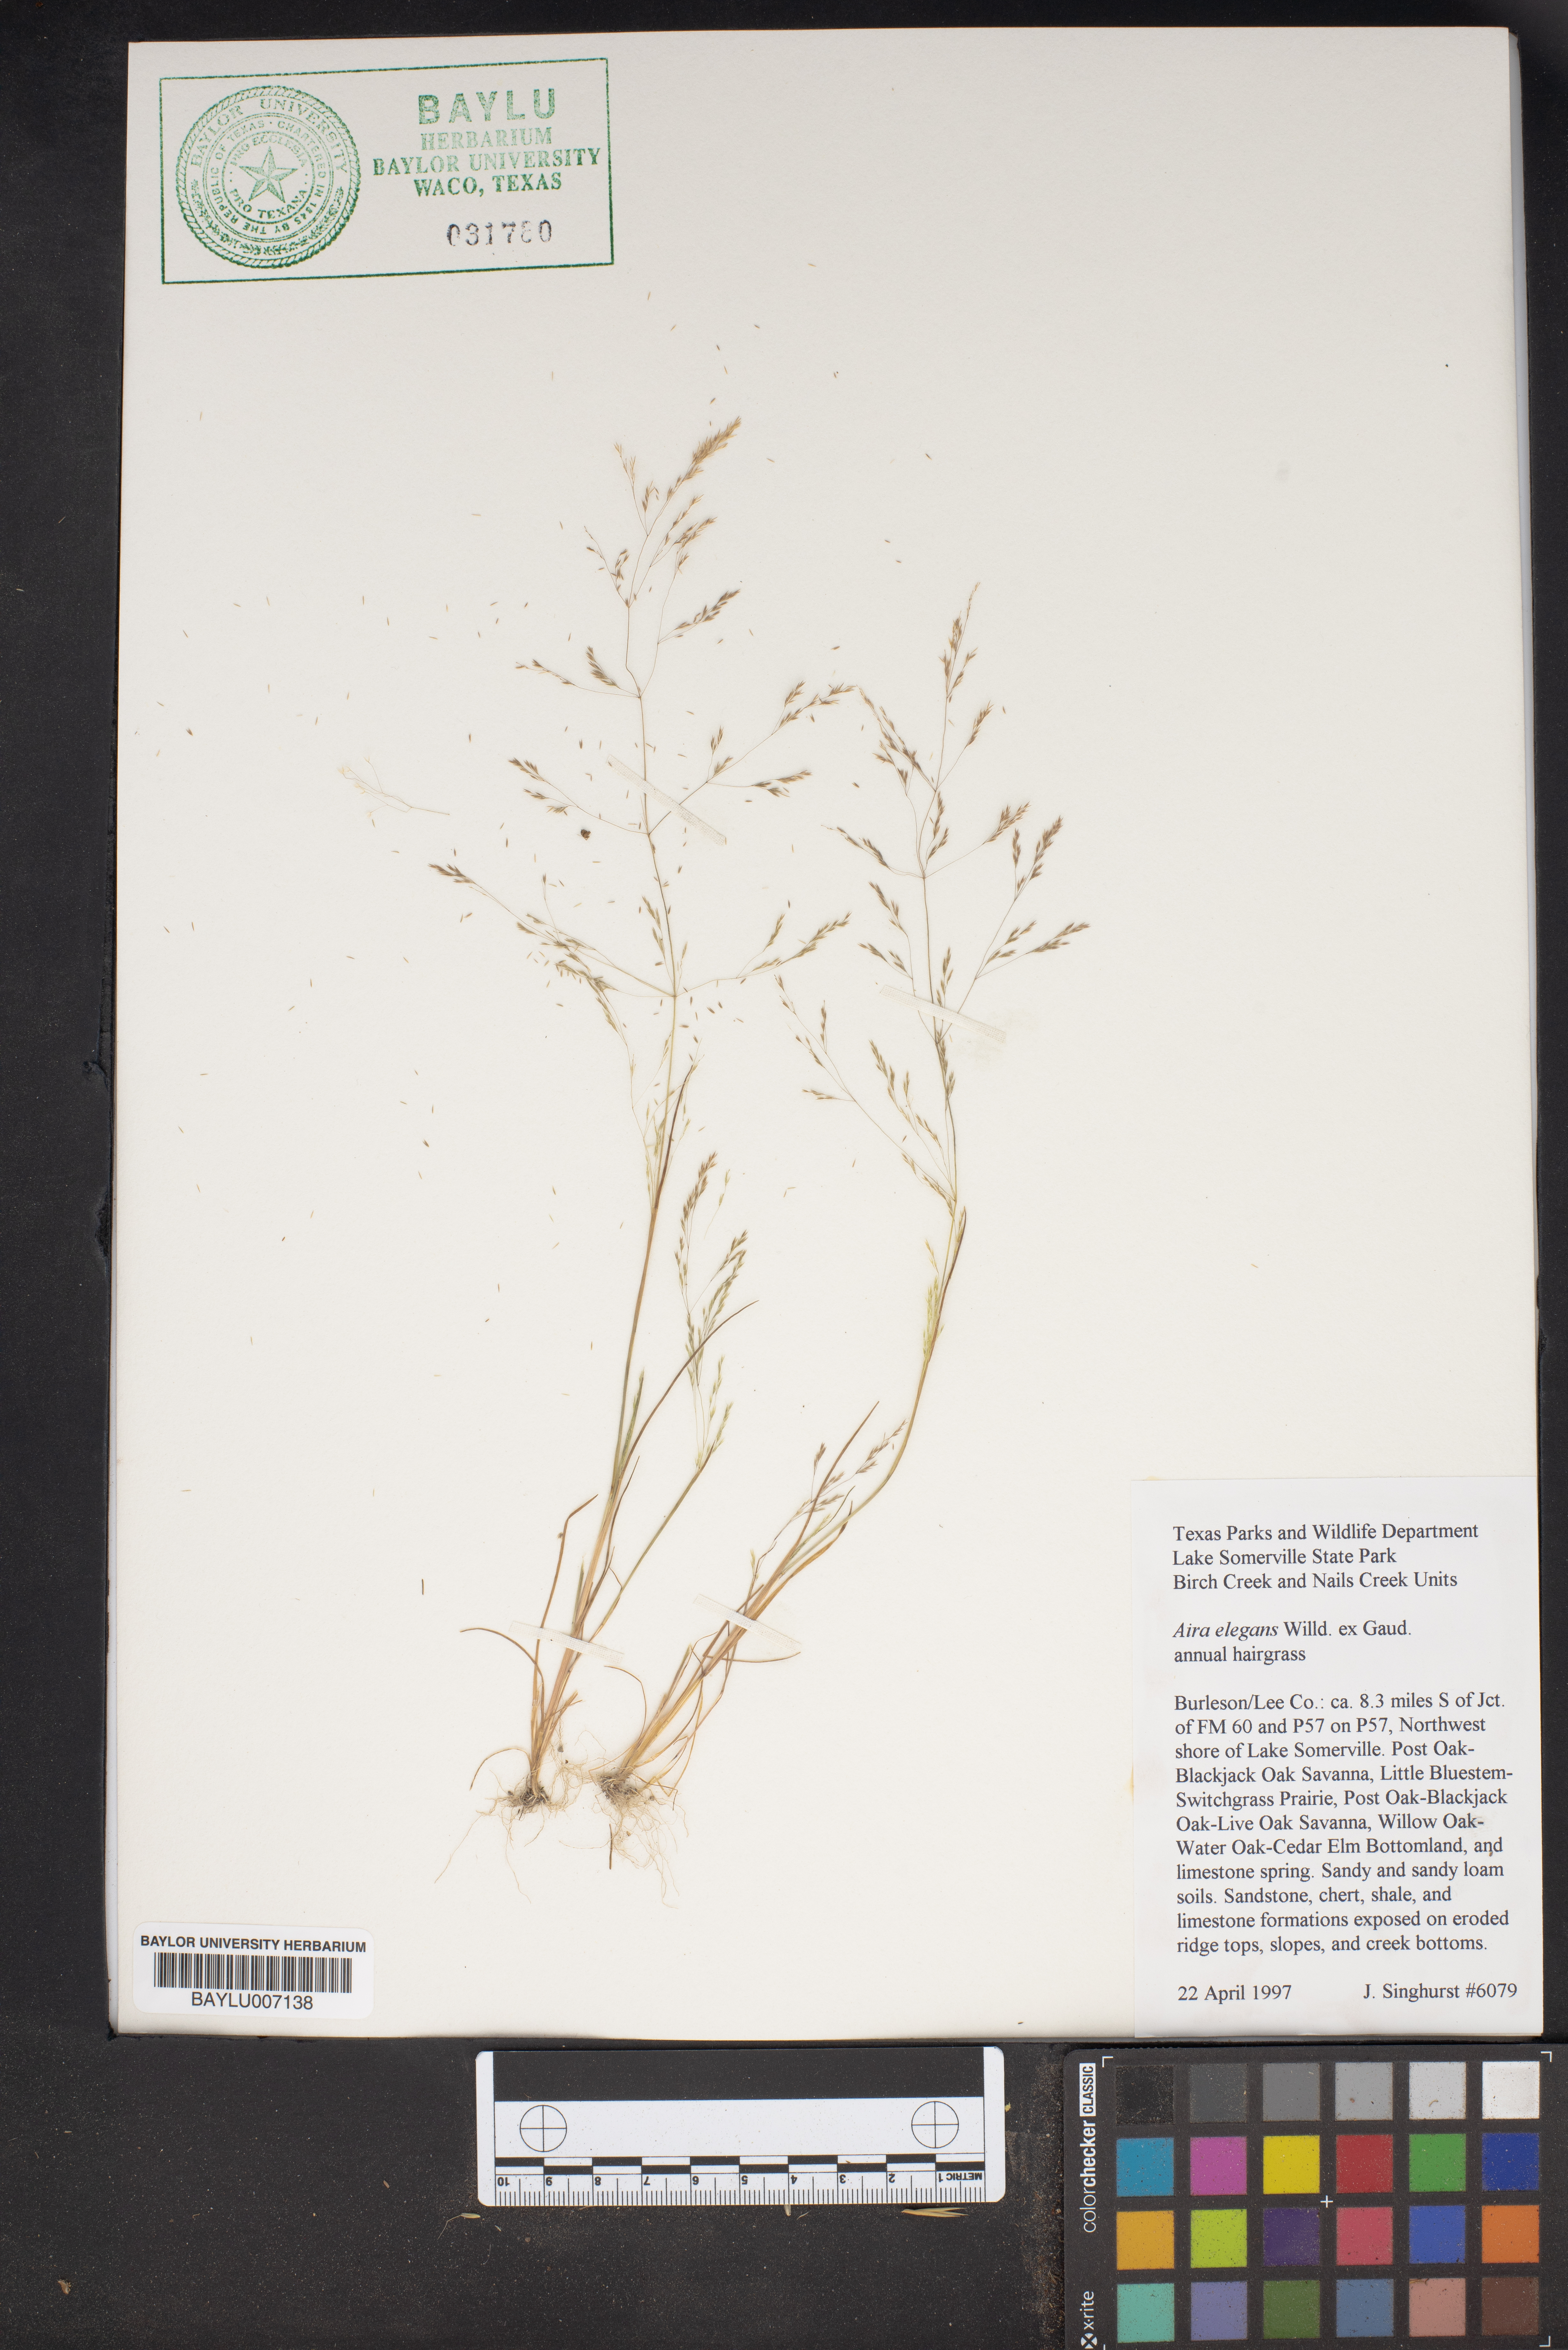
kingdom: Plantae
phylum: Tracheophyta
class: Liliopsida
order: Poales
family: Poaceae
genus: Aira
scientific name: Aira elegans
